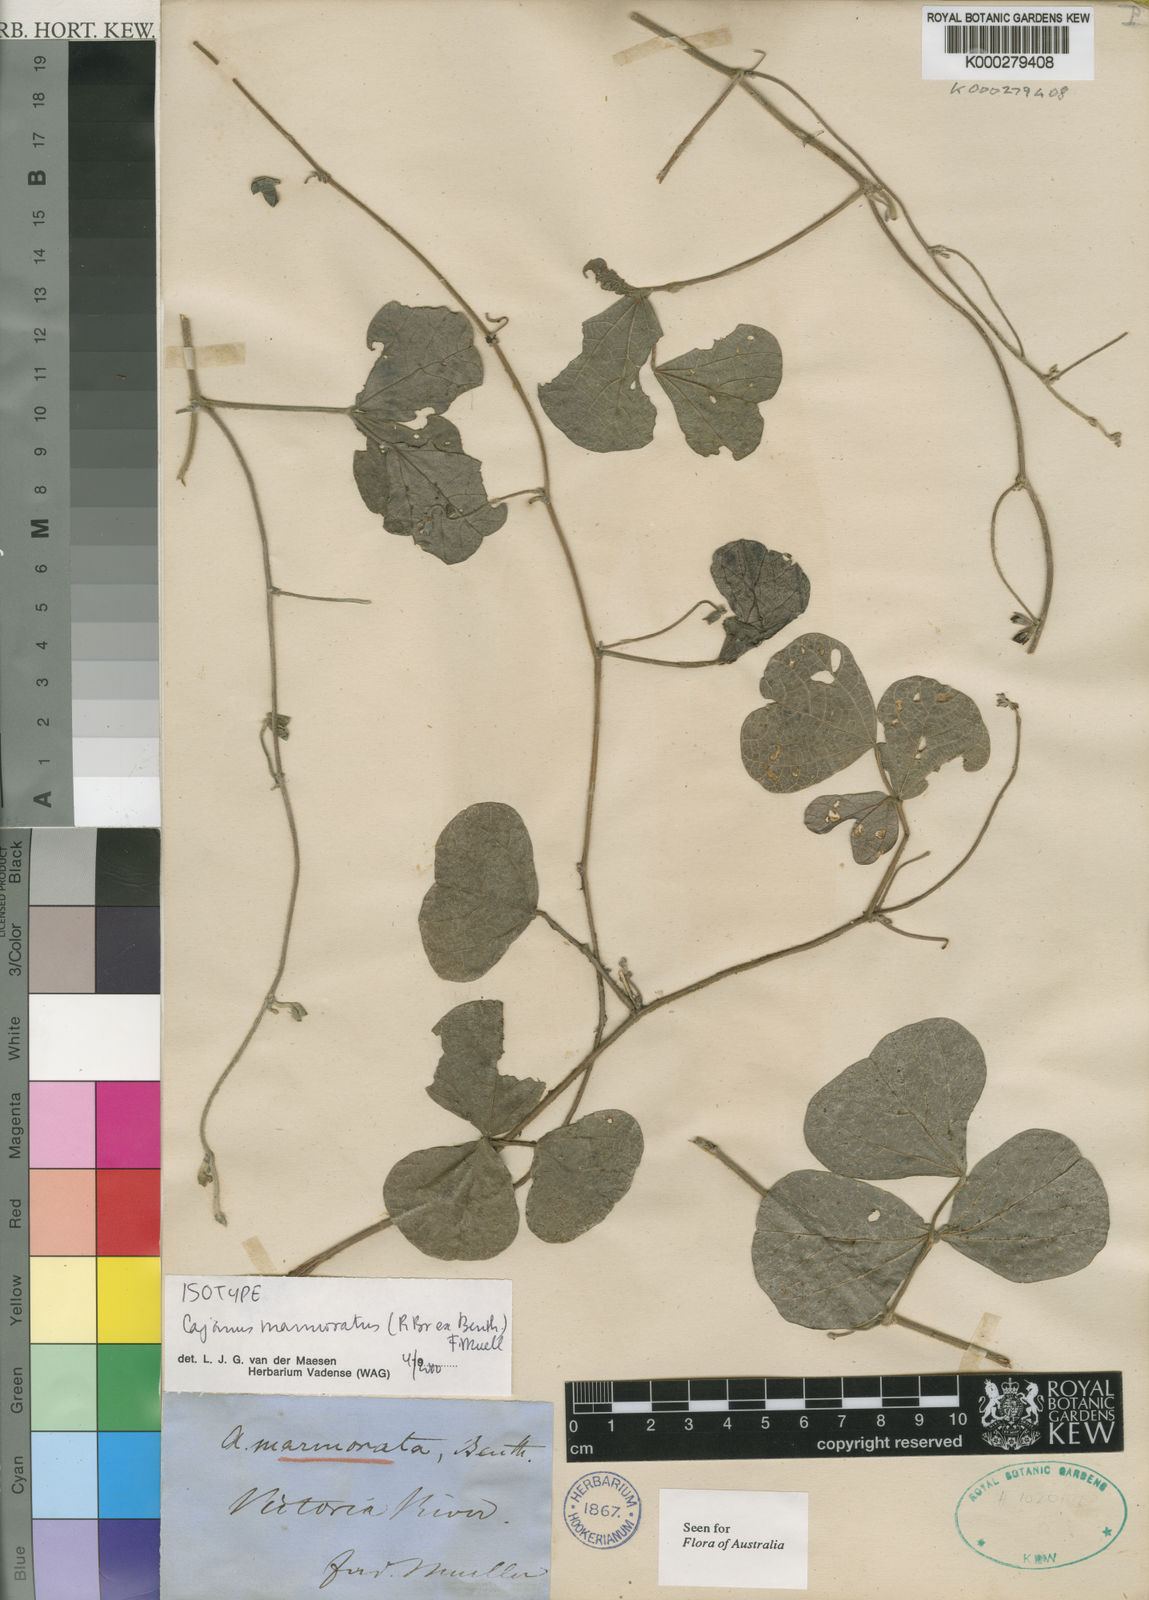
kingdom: Plantae
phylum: Tracheophyta
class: Magnoliopsida
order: Fabales
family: Fabaceae
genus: Cajanus
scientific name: Cajanus marmoratus
